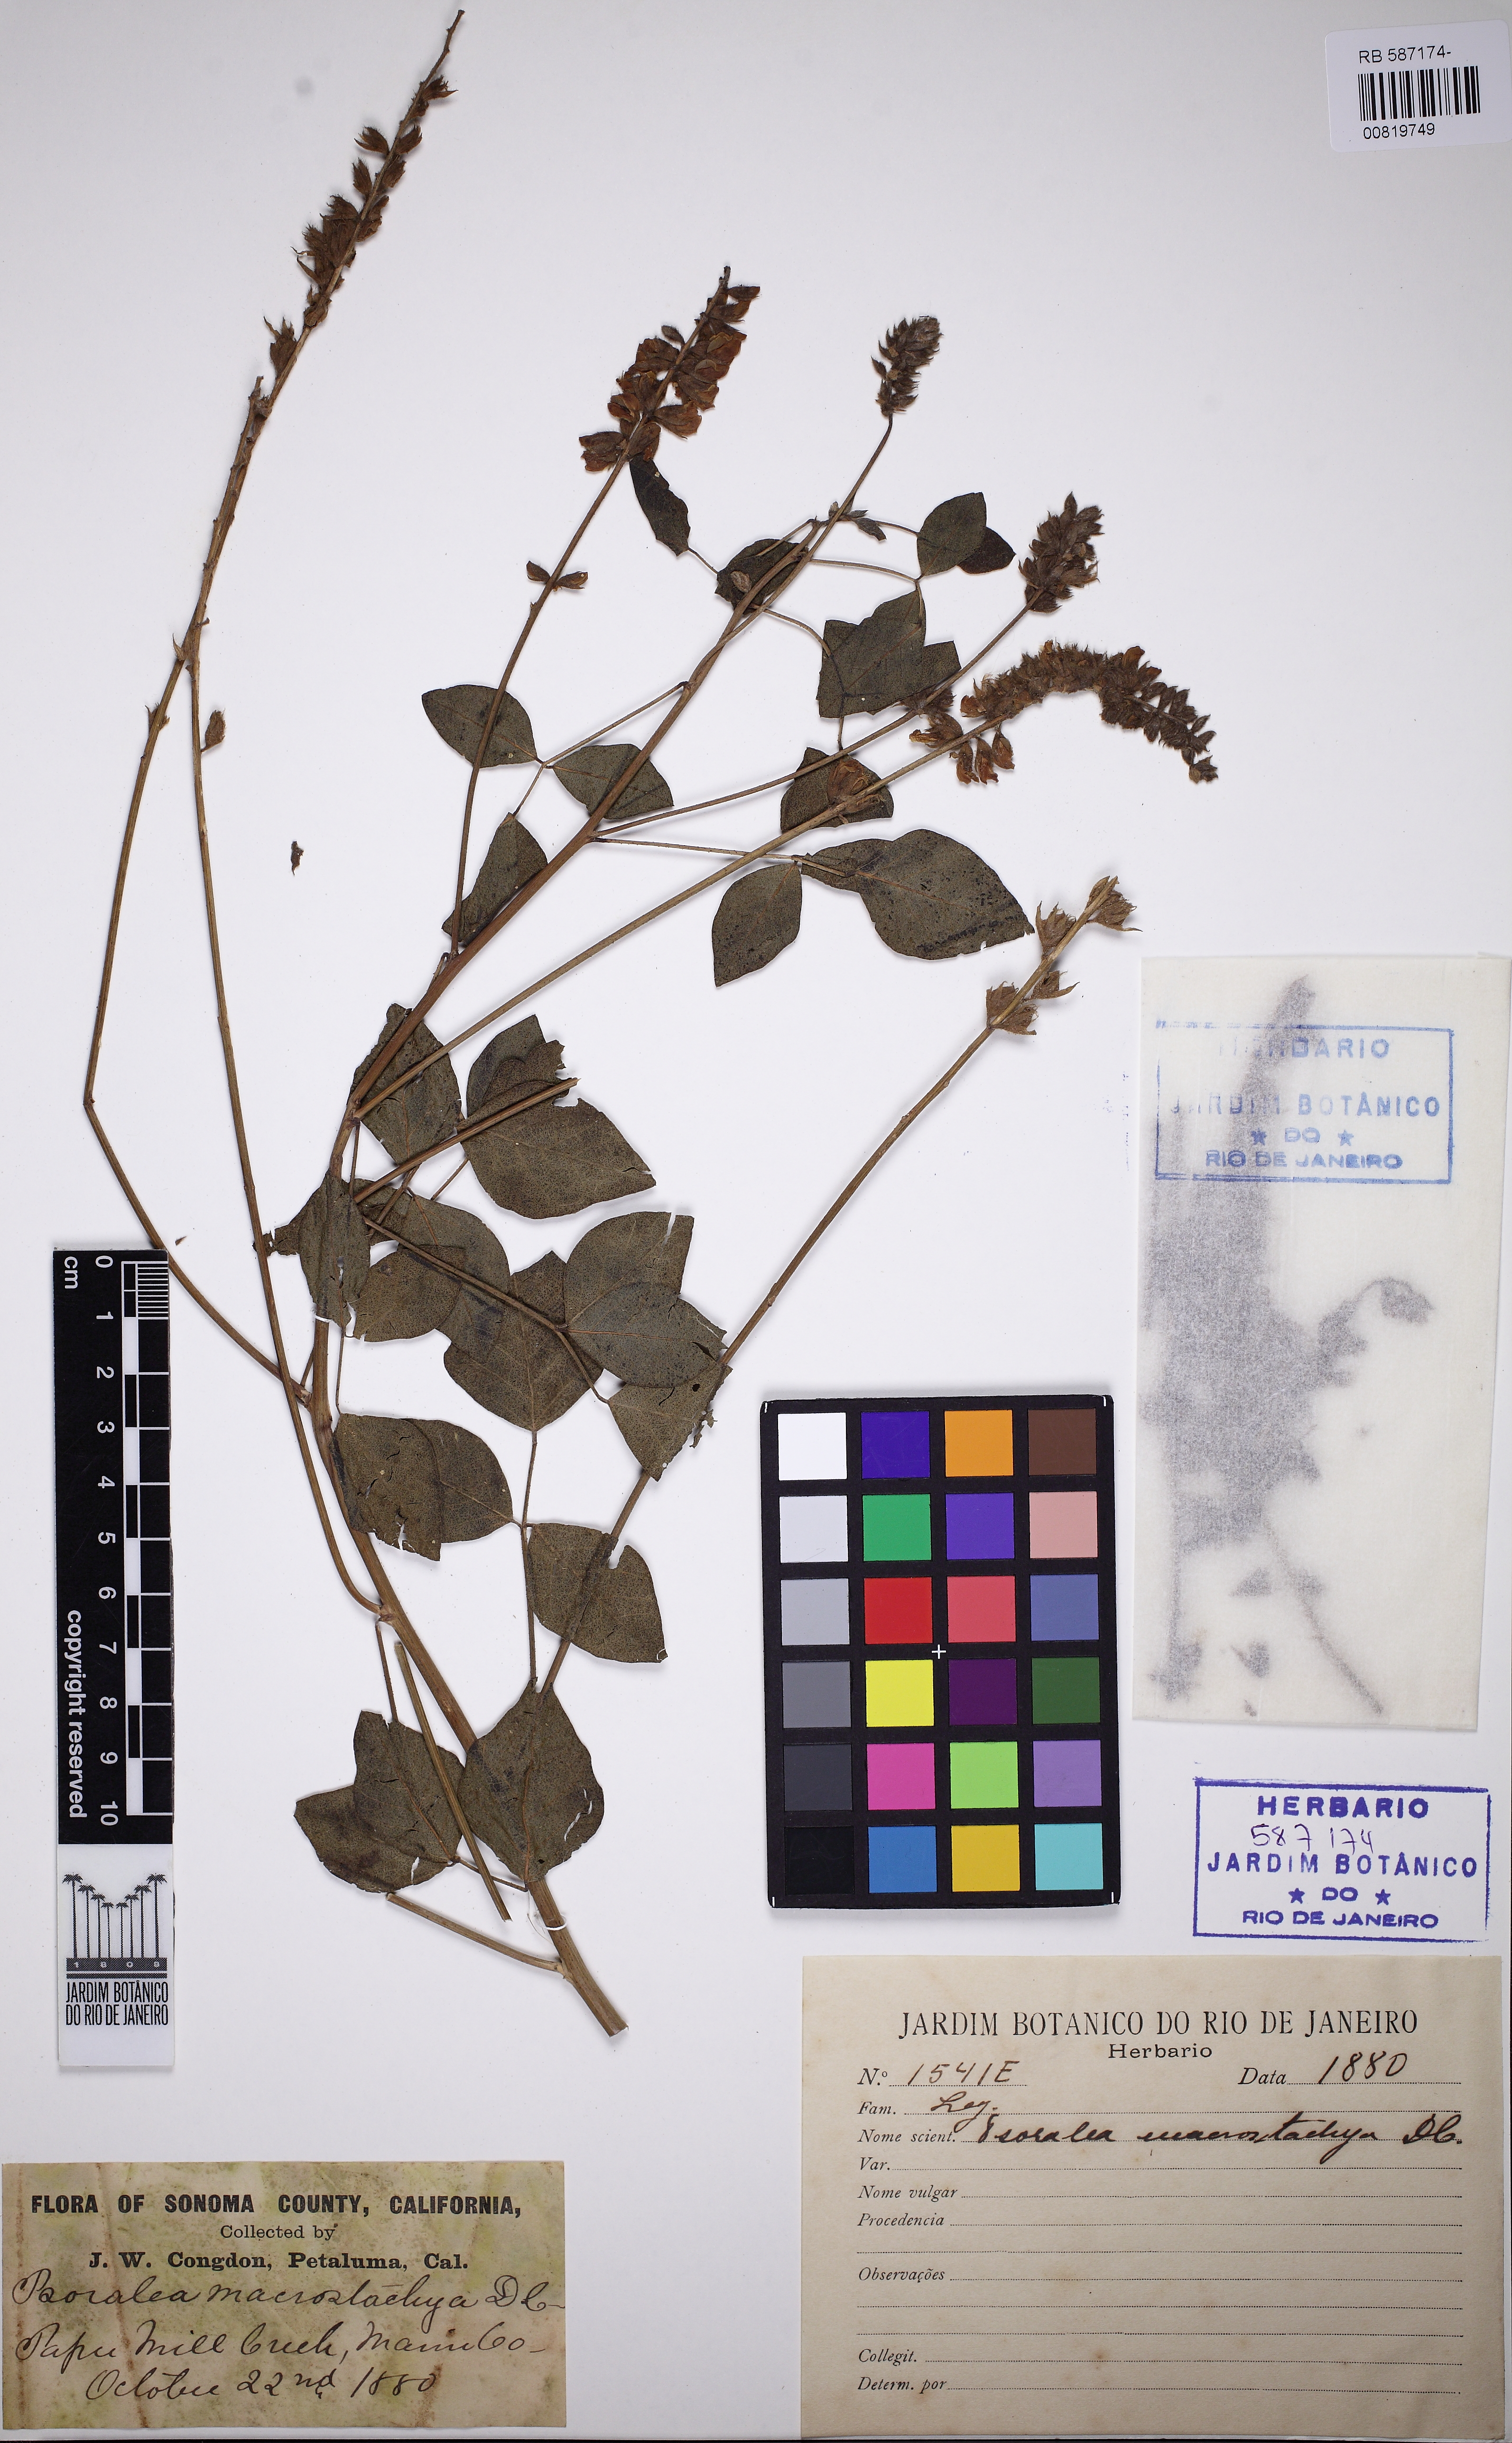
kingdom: Plantae
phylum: Tracheophyta
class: Magnoliopsida
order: Fabales
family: Fabaceae
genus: Hoita
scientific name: Hoita macrostachya
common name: Leatherroot
